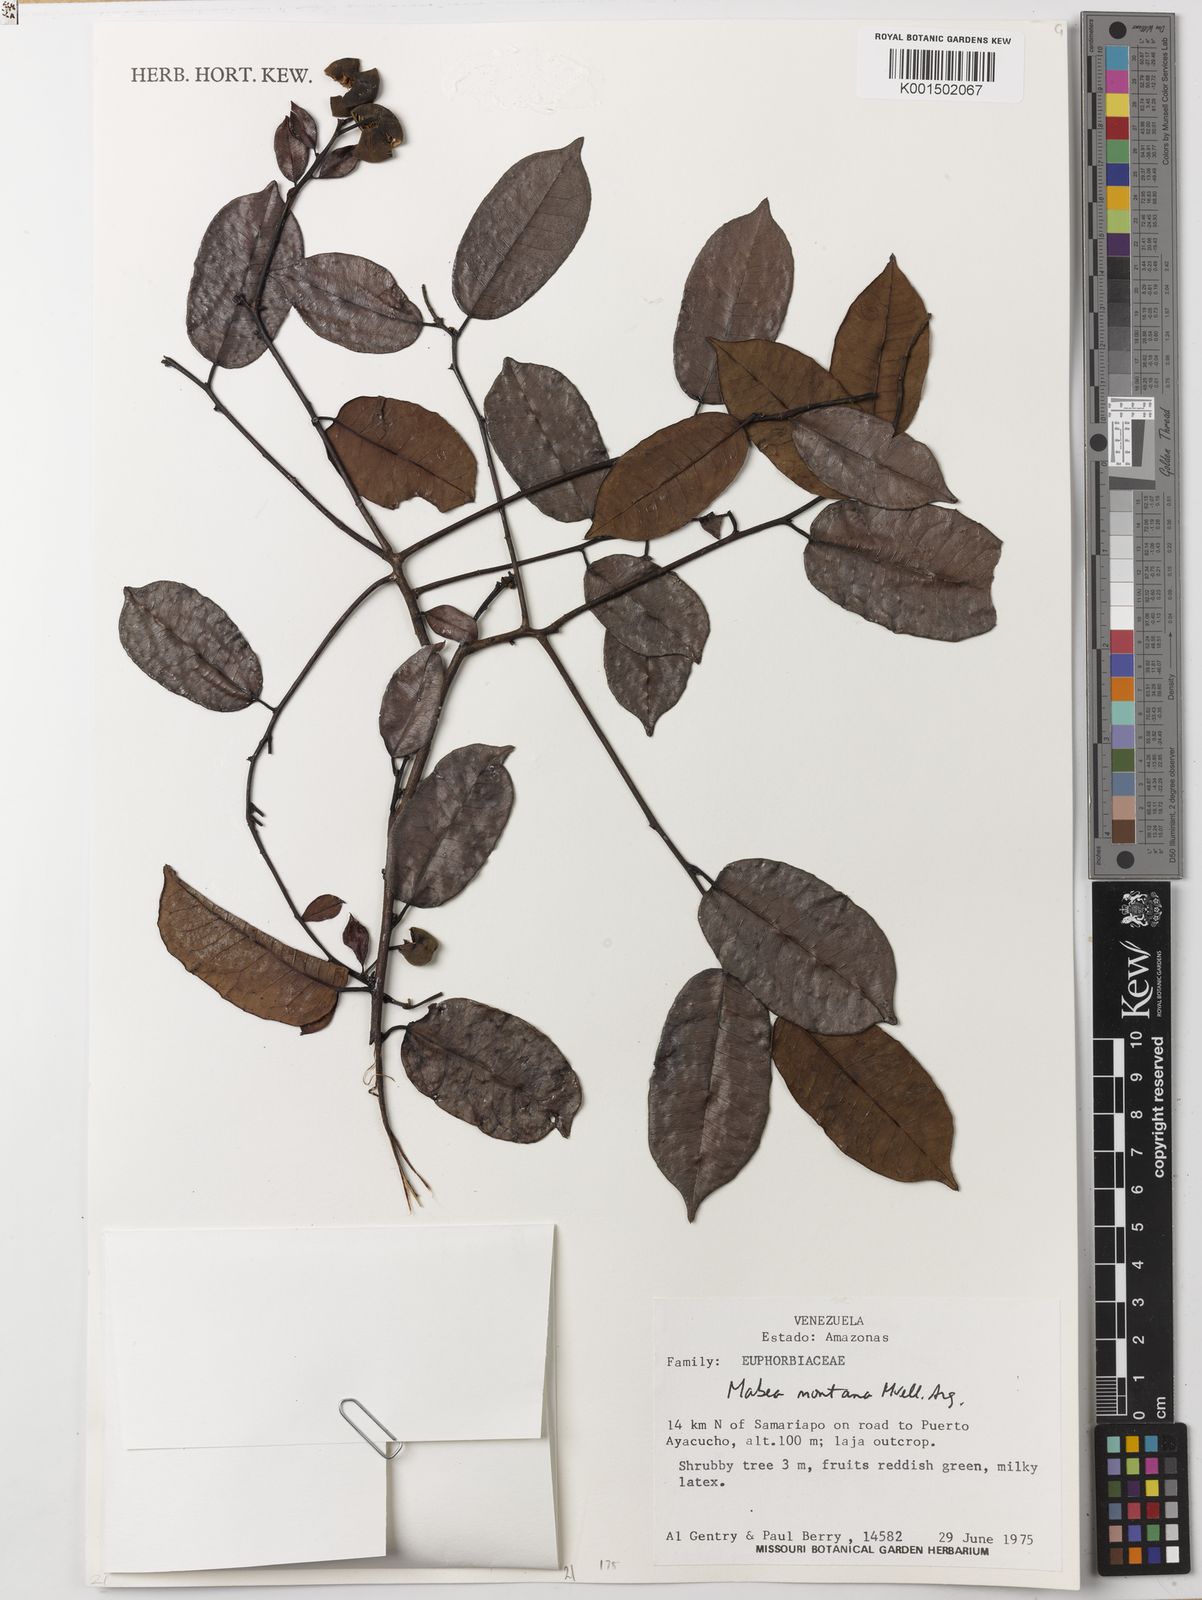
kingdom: Plantae
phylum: Tracheophyta
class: Magnoliopsida
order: Malpighiales
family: Euphorbiaceae
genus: Mabea
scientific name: Mabea montana
